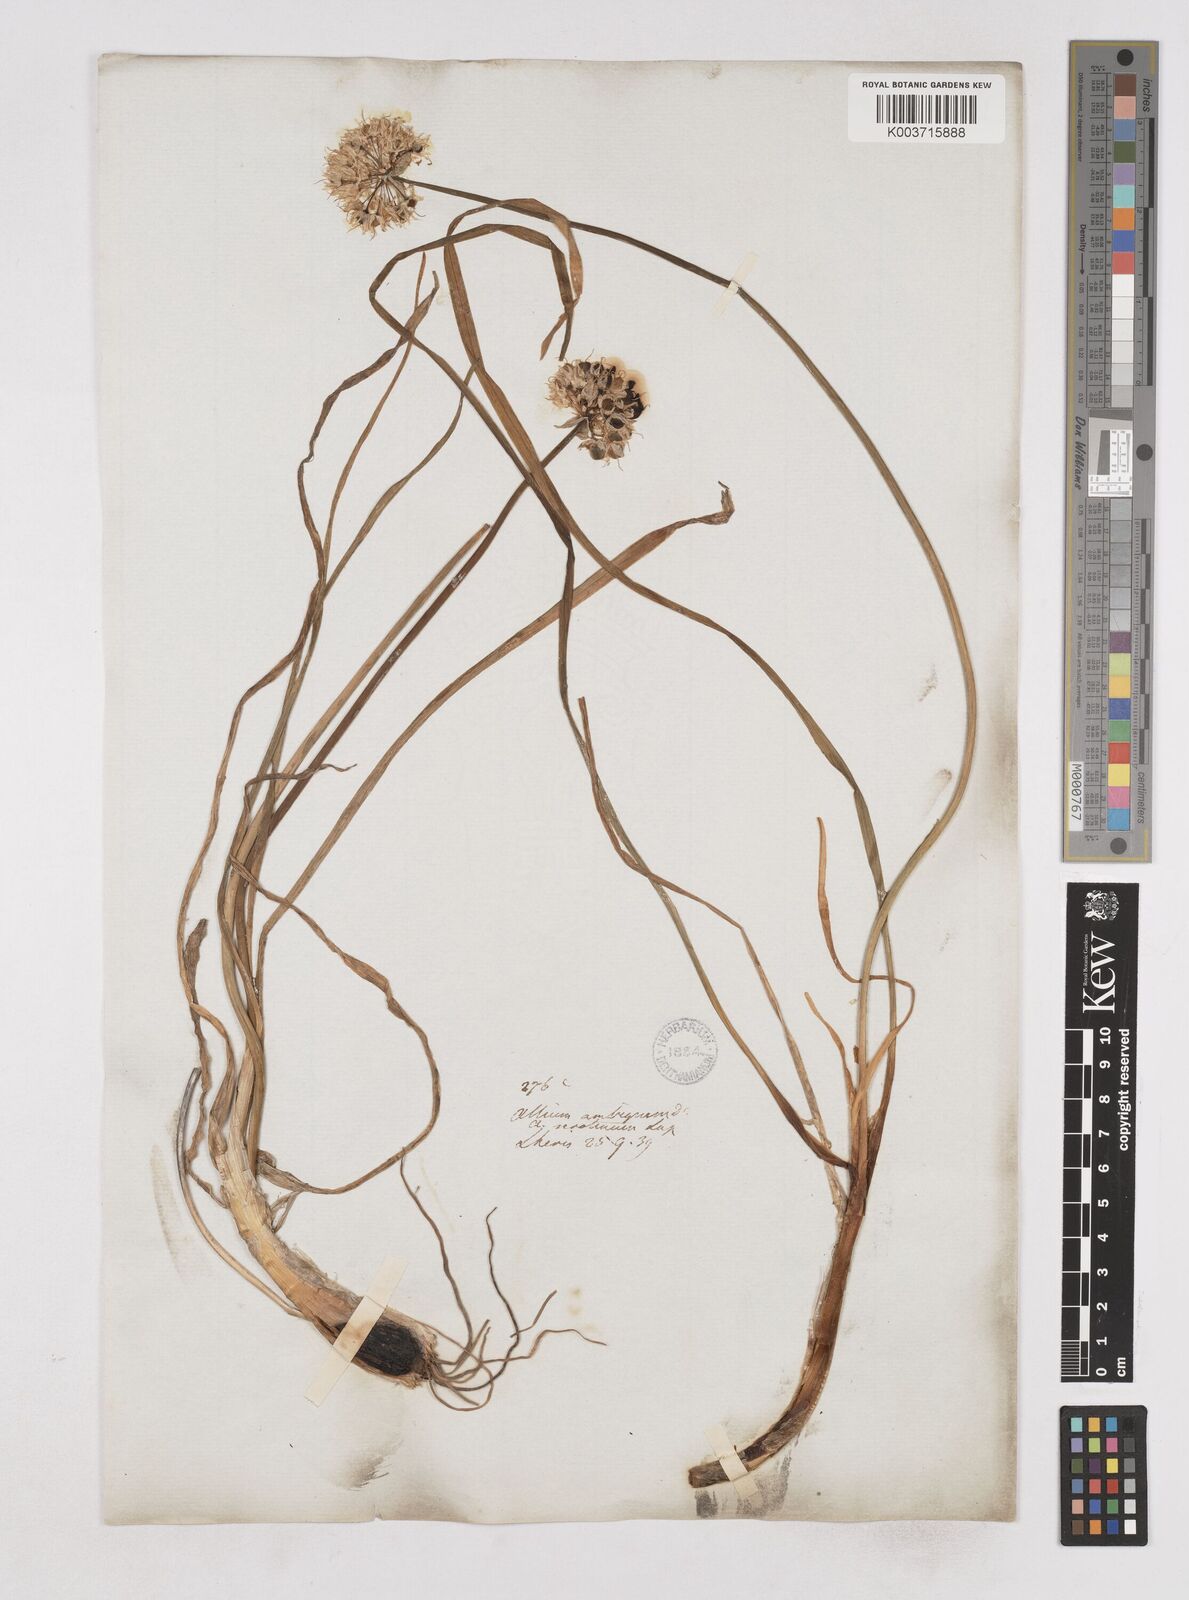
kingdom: Plantae
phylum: Tracheophyta
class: Liliopsida
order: Asparagales
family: Amaryllidaceae
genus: Allium
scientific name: Allium ericetorum
